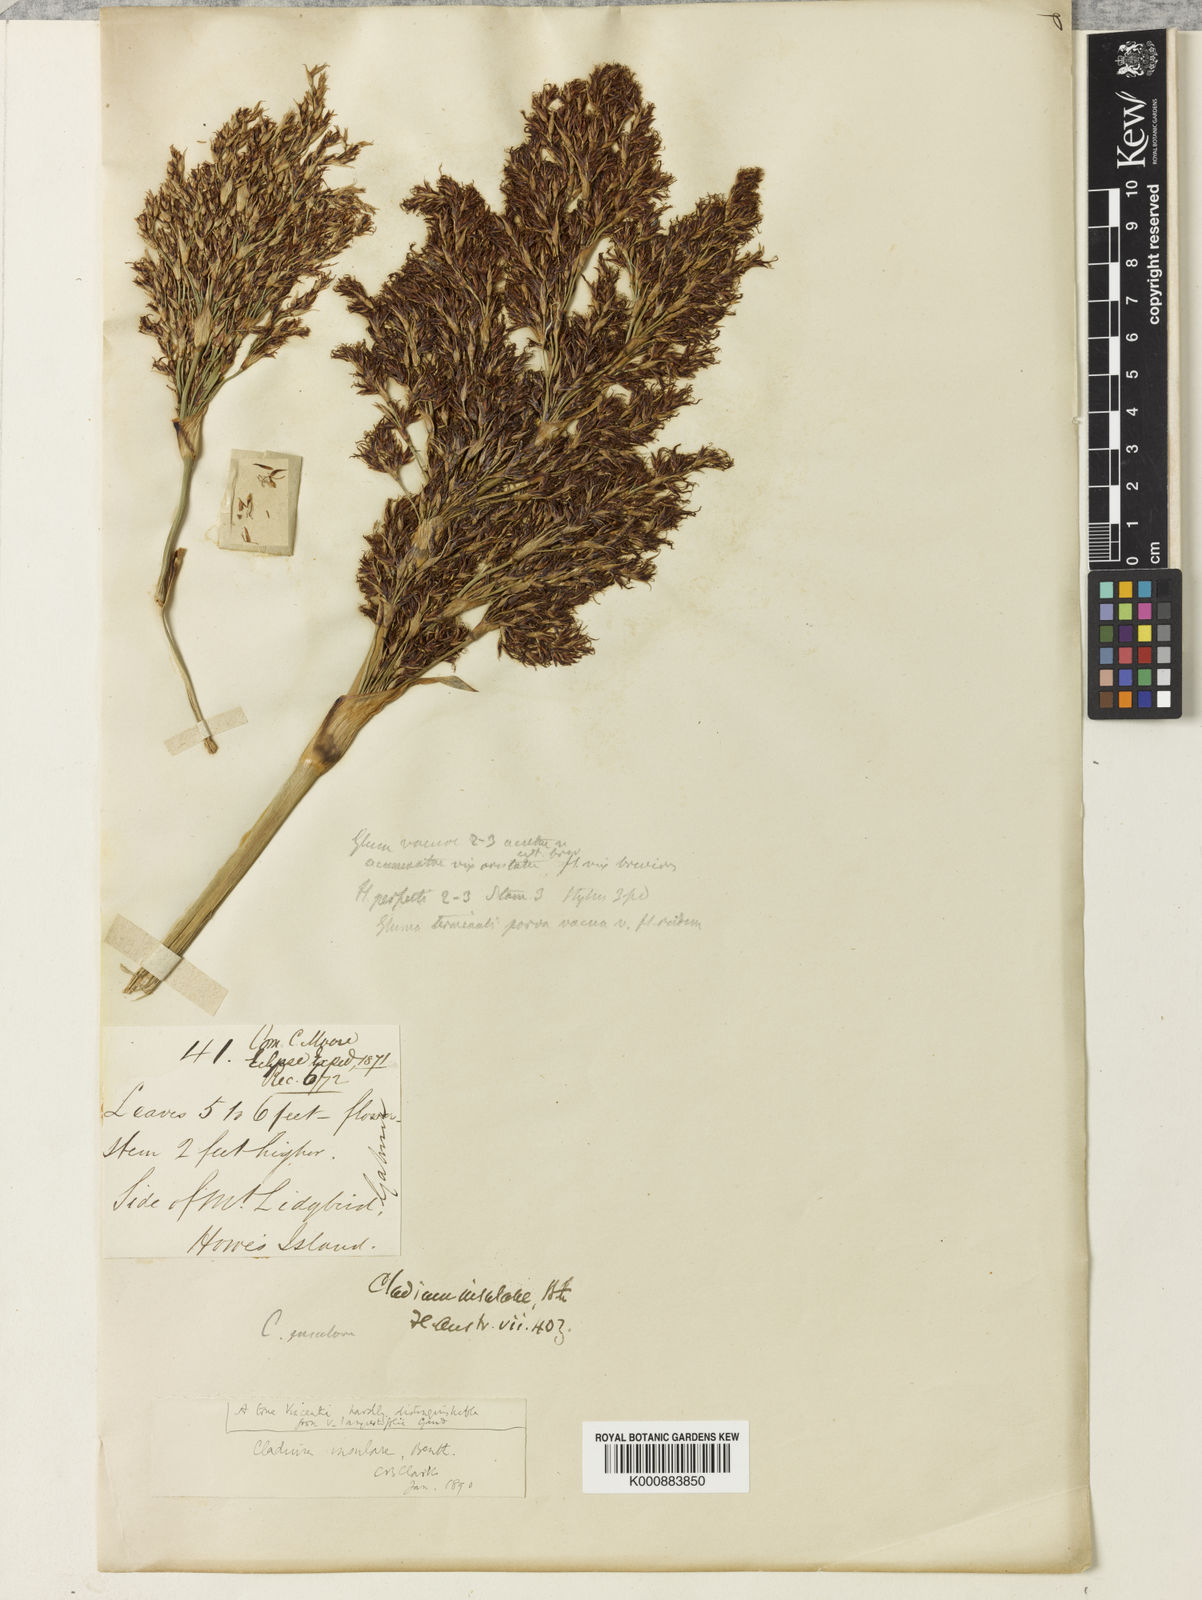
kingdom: Plantae
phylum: Tracheophyta
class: Liliopsida
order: Poales
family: Cyperaceae
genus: Machaerina
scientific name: Machaerina insularis
